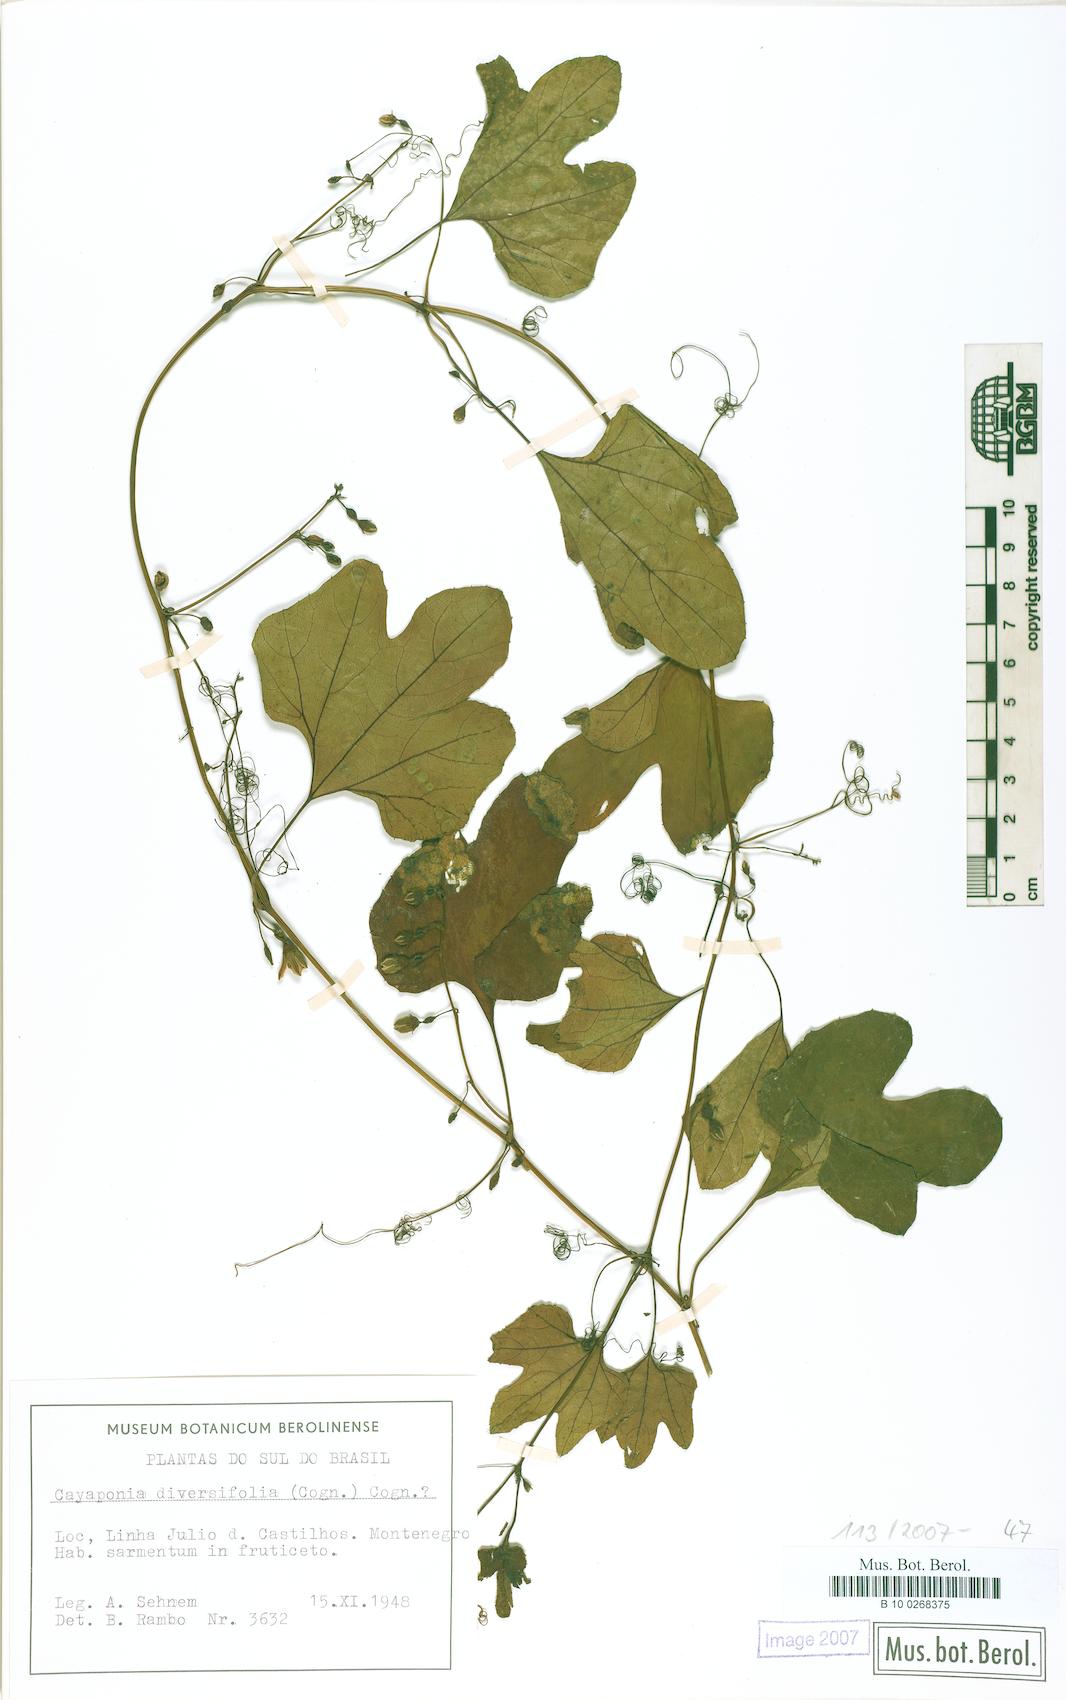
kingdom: Plantae
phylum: Tracheophyta
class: Magnoliopsida
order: Cucurbitales
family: Cucurbitaceae
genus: Cayaponia
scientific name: Cayaponia diversifolia
